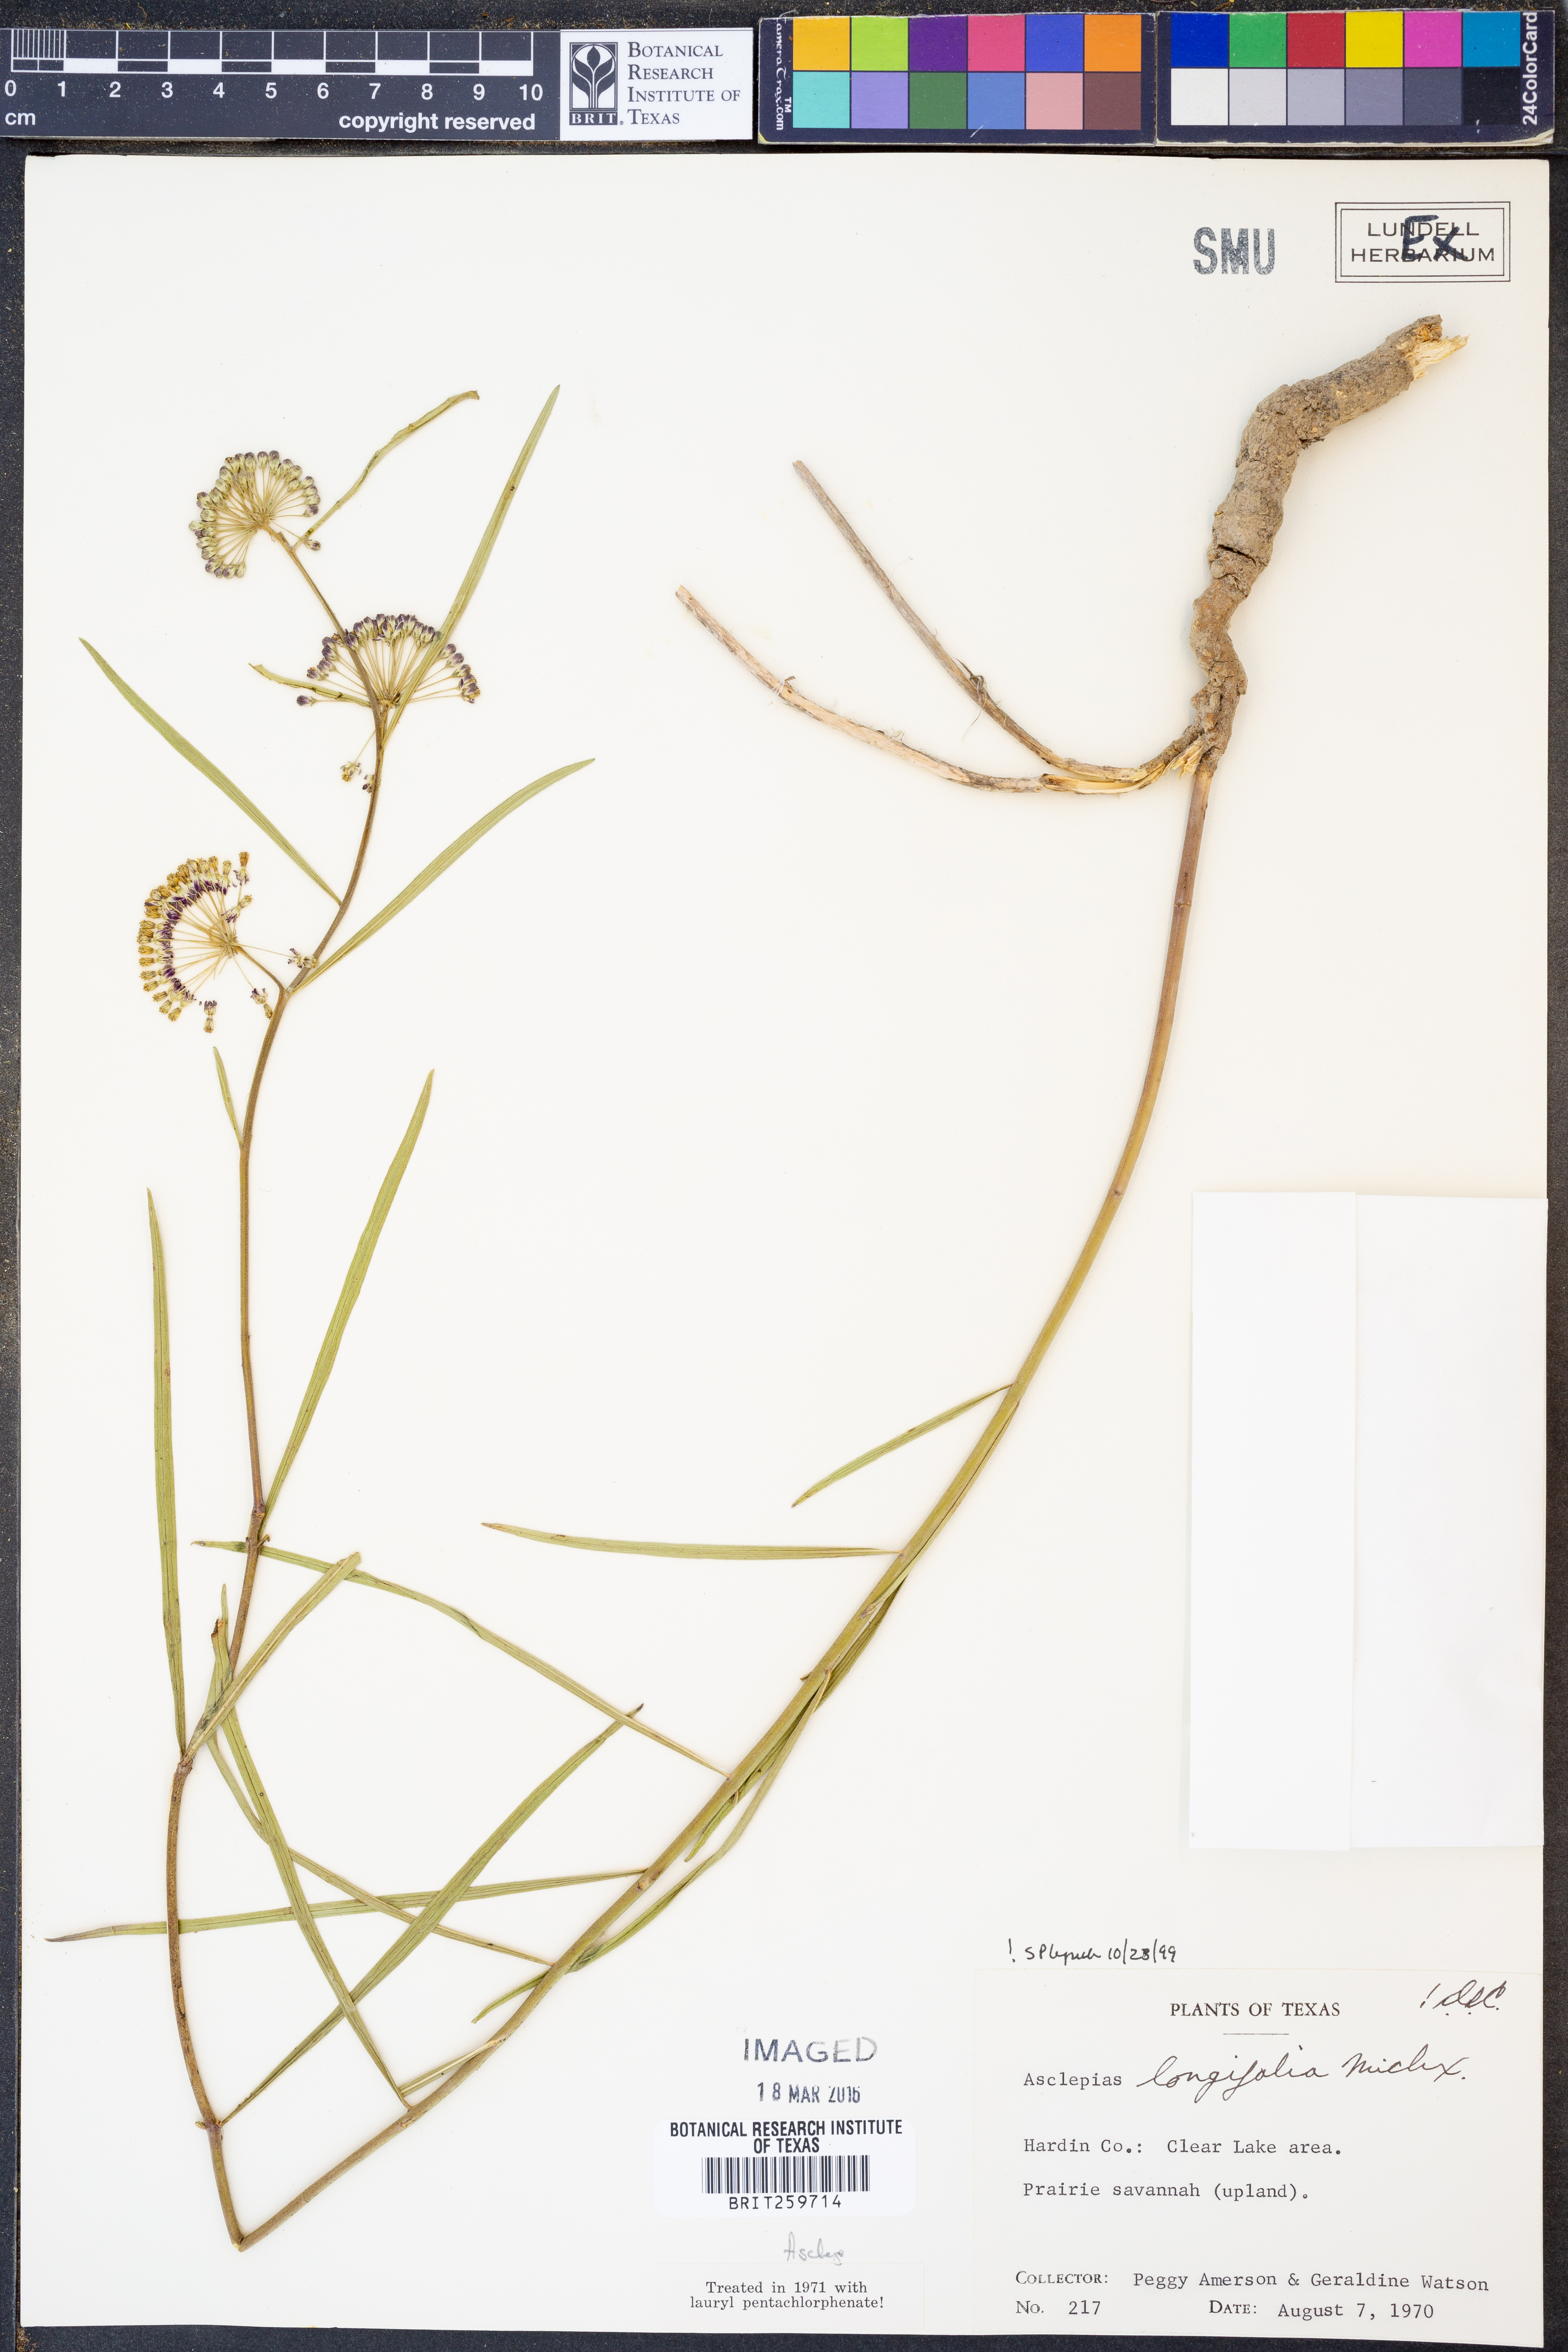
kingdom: Plantae
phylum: Tracheophyta
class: Magnoliopsida
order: Gentianales
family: Apocynaceae
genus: Asclepias
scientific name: Asclepias longifolia
